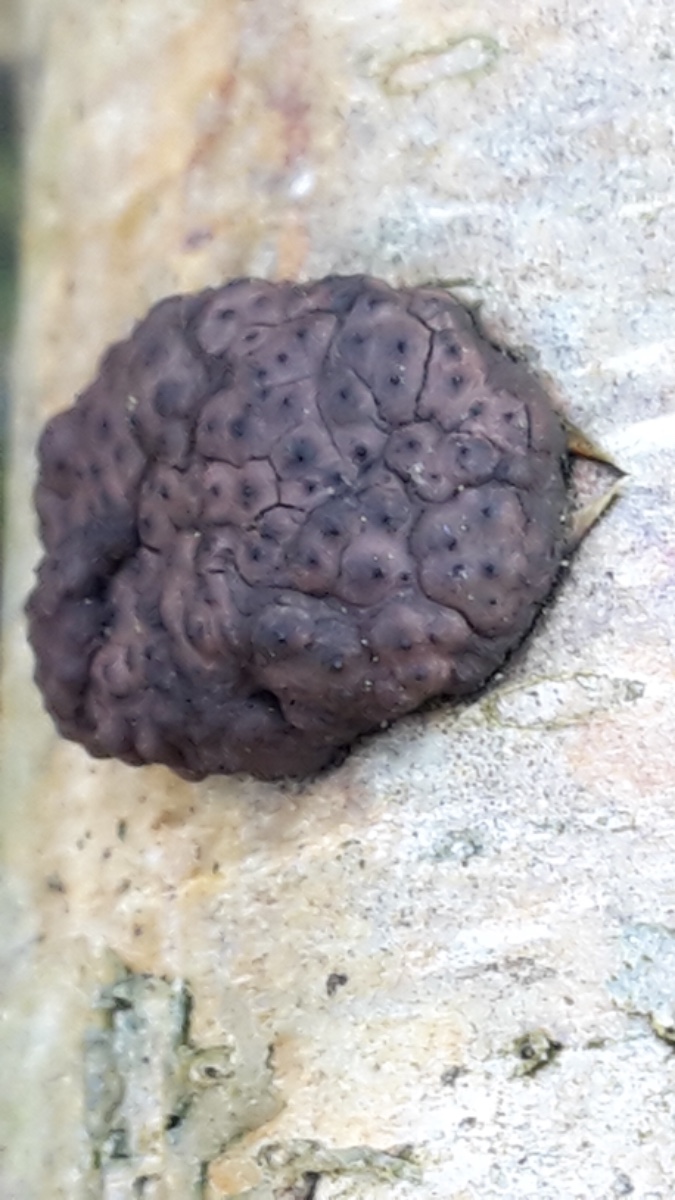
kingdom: Fungi
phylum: Ascomycota
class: Sordariomycetes
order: Xylariales
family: Hypoxylaceae
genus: Jackrogersella
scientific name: Jackrogersella multiformis
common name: foranderlig kulbær
